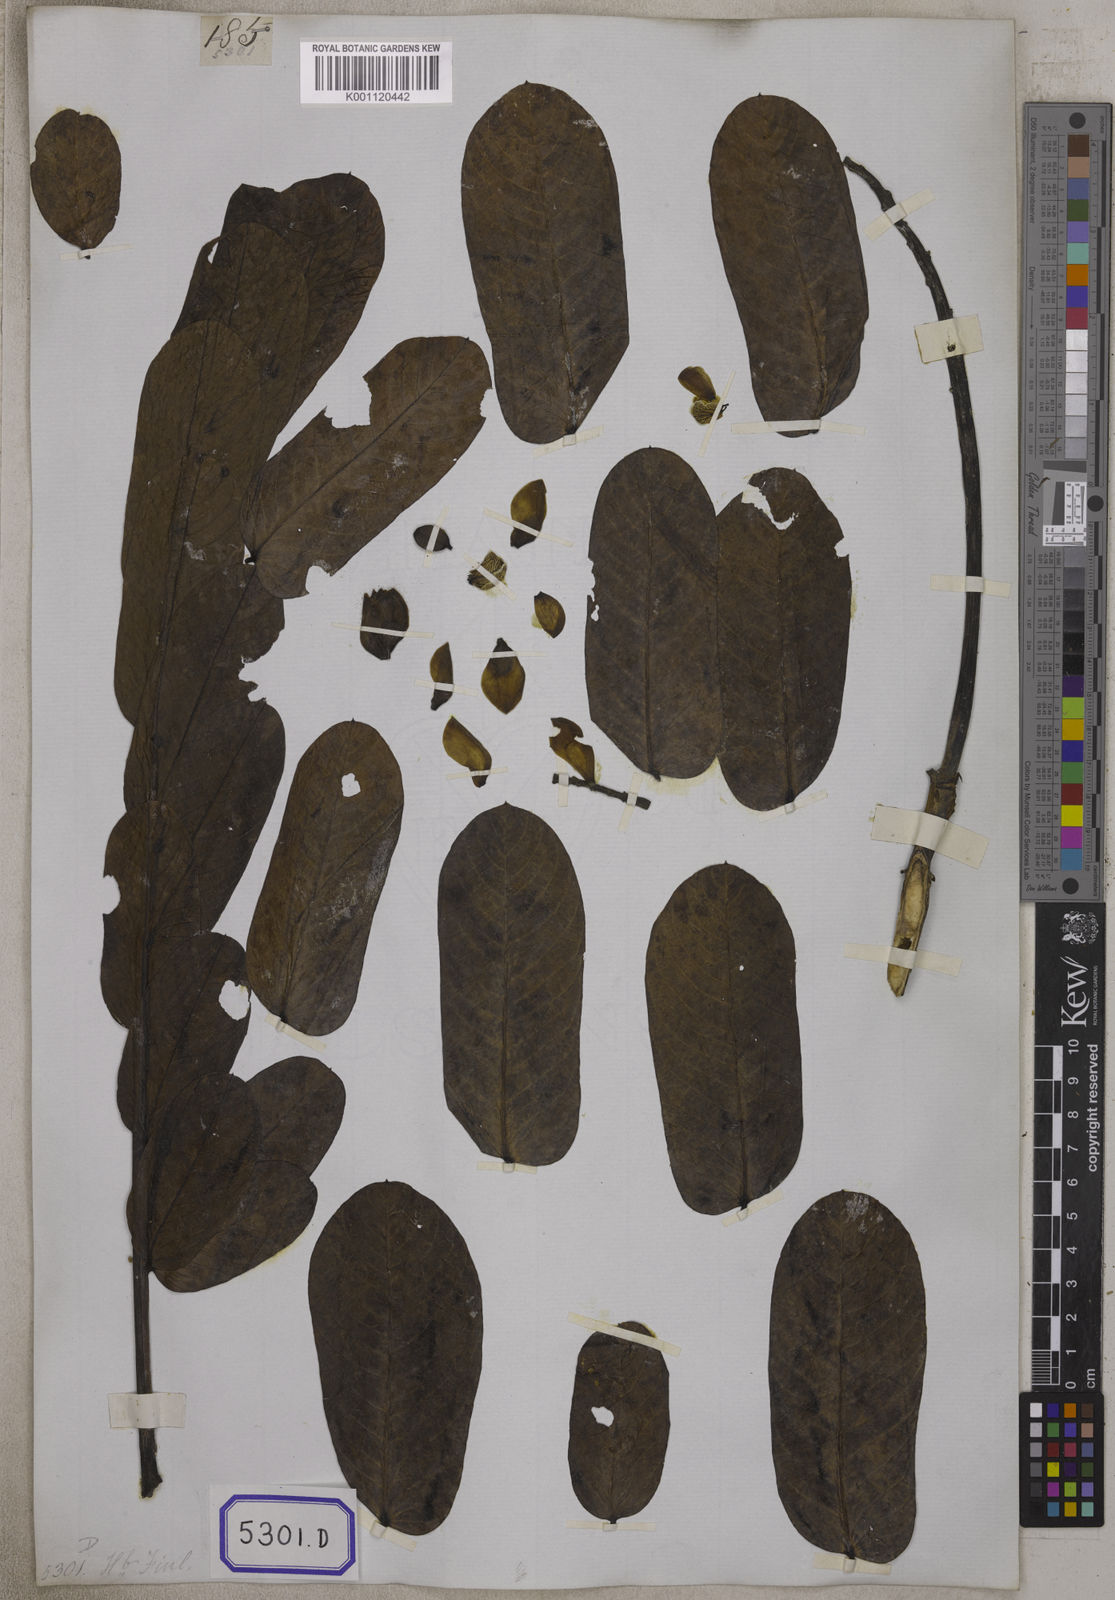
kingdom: Plantae
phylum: Tracheophyta
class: Magnoliopsida
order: Fabales
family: Fabaceae
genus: Senna
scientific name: Senna alata
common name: Emperor's candlesticks
